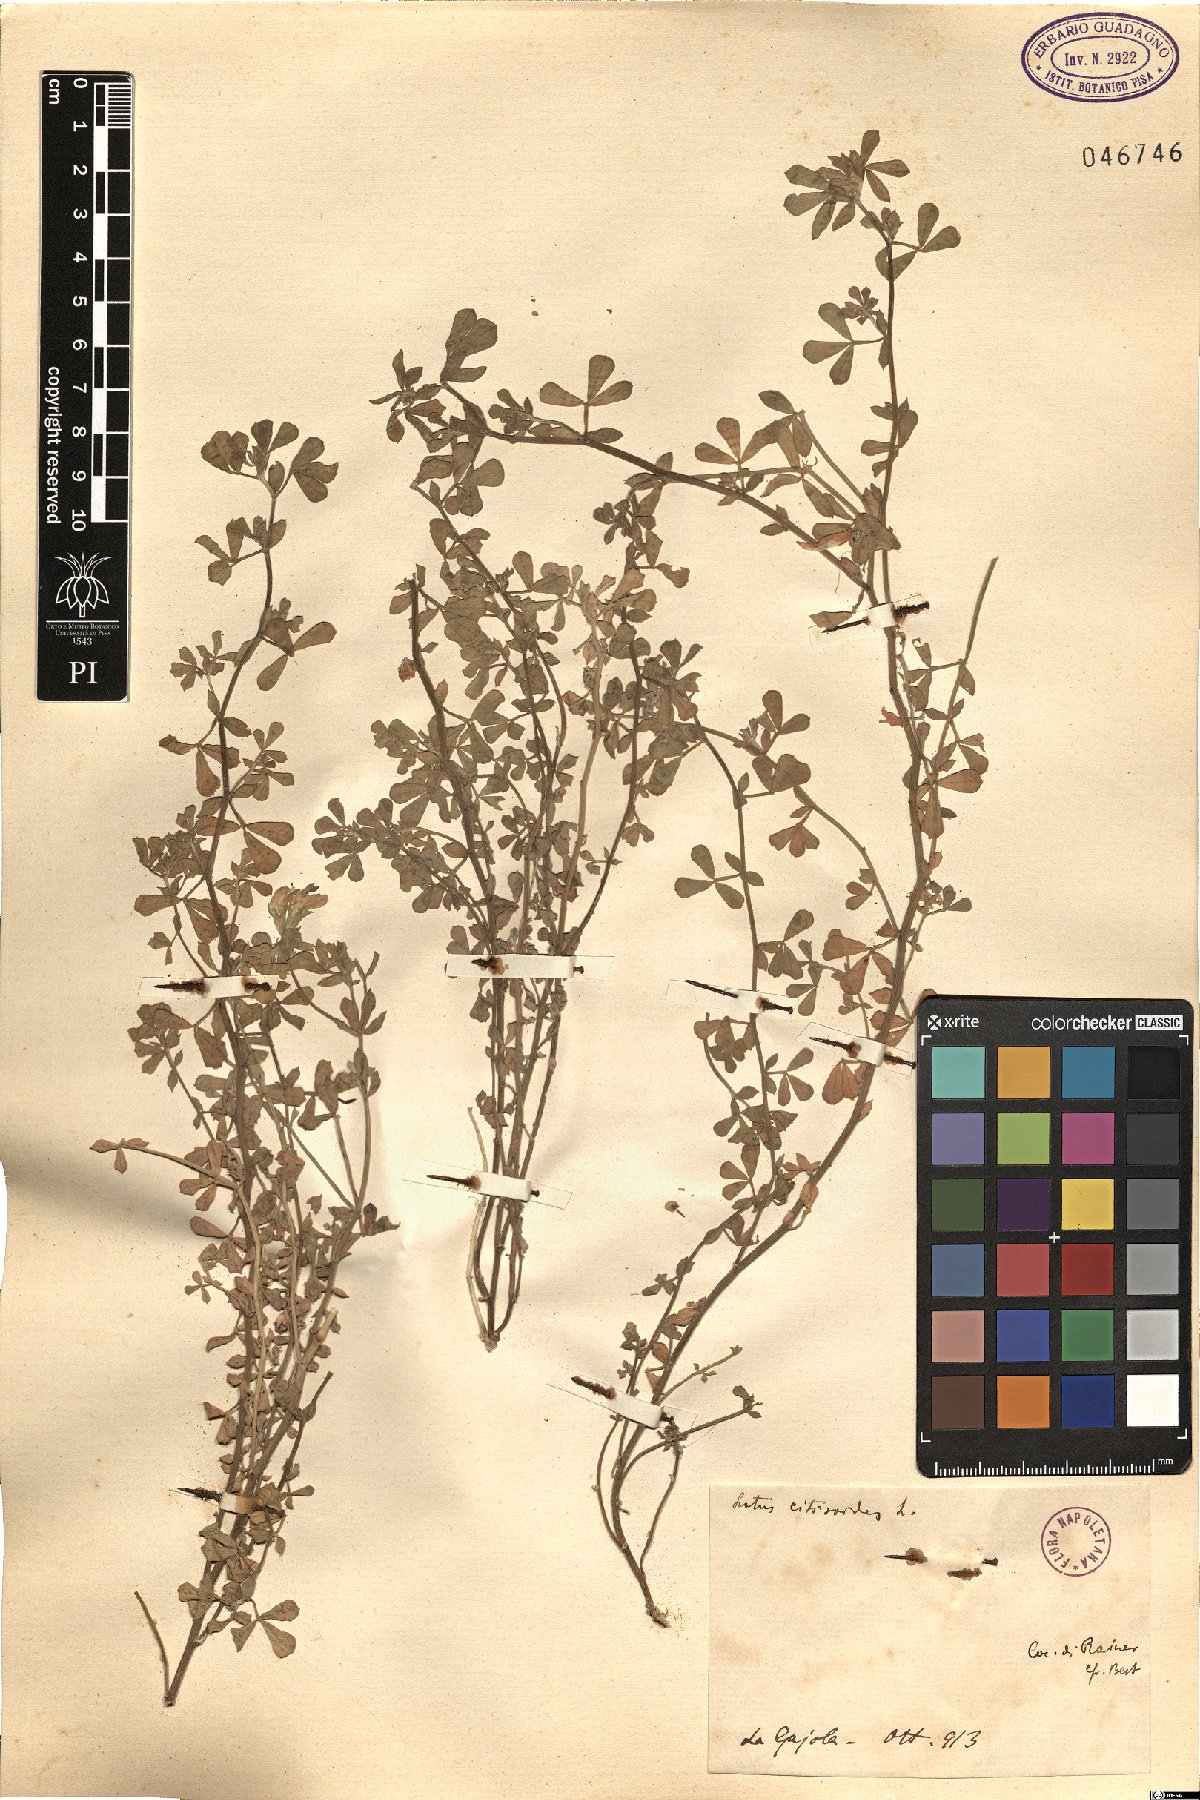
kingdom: Plantae
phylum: Tracheophyta
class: Magnoliopsida
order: Fabales
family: Fabaceae
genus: Lotus
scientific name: Lotus cytisoides
